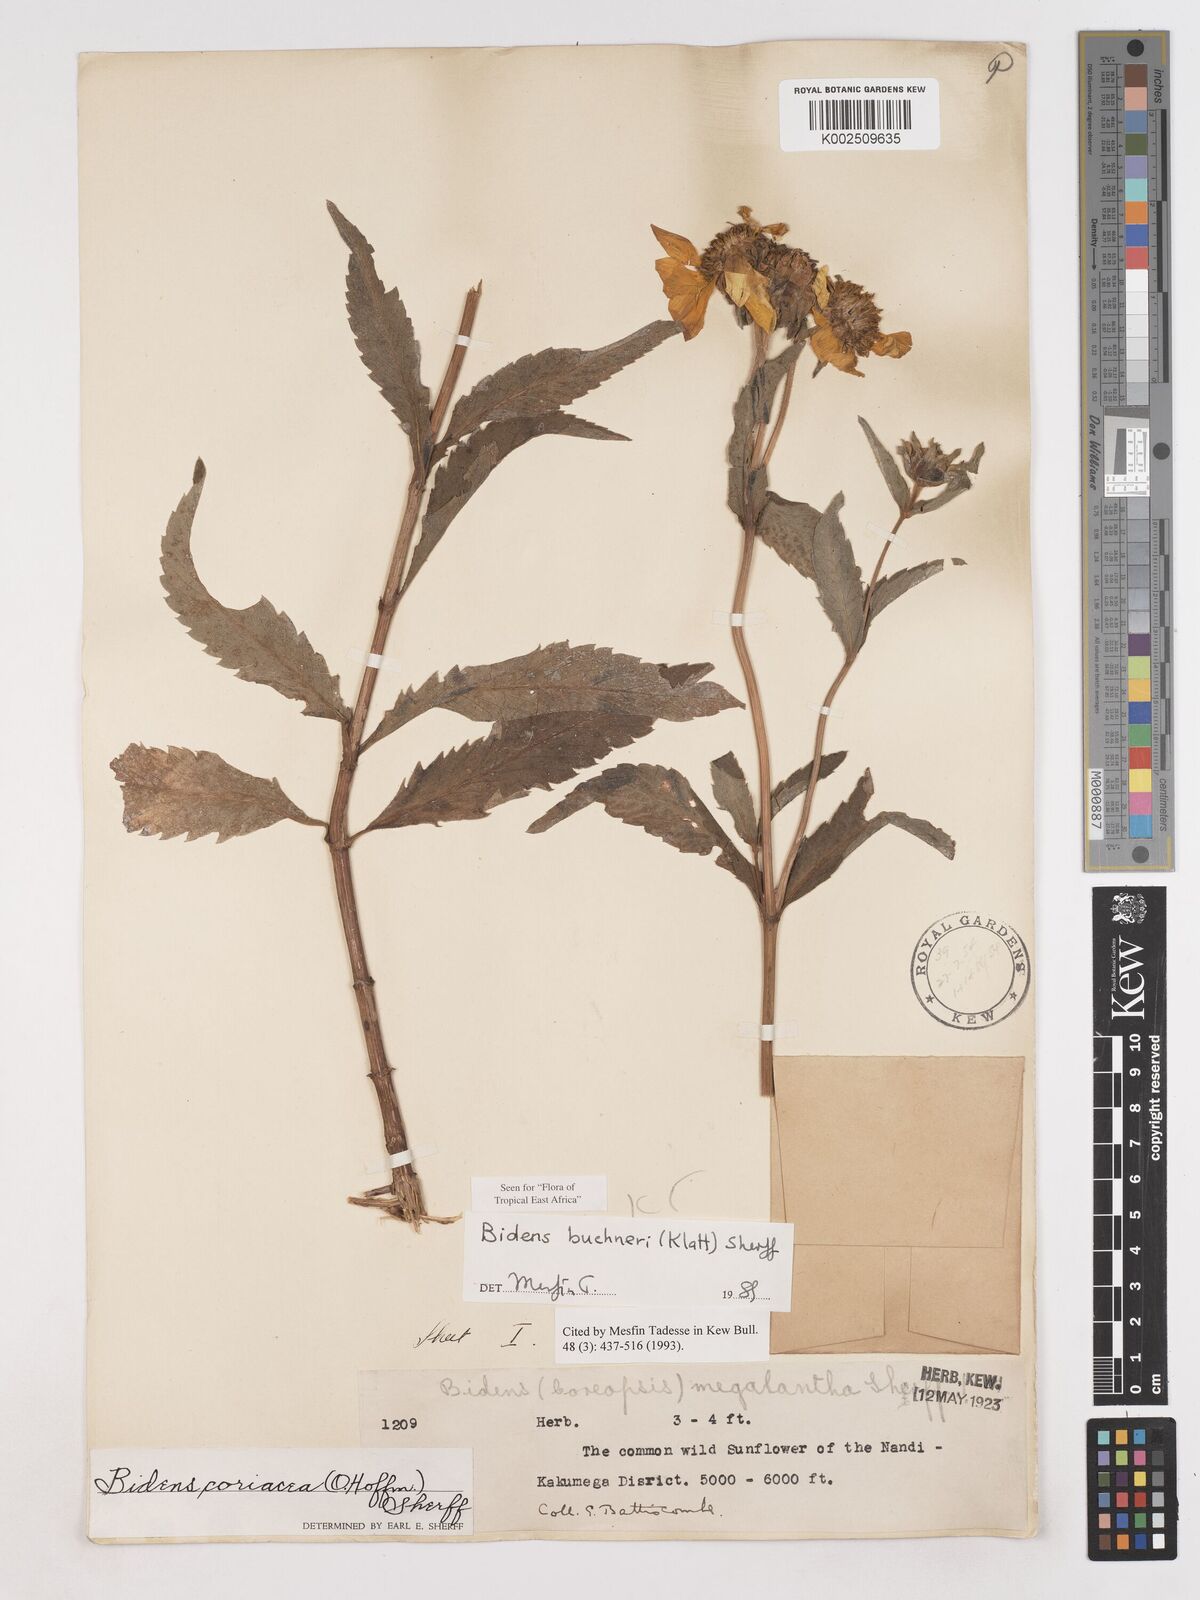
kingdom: Plantae
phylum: Tracheophyta
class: Magnoliopsida
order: Asterales
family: Asteraceae
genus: Bidens
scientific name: Bidens buchneri
